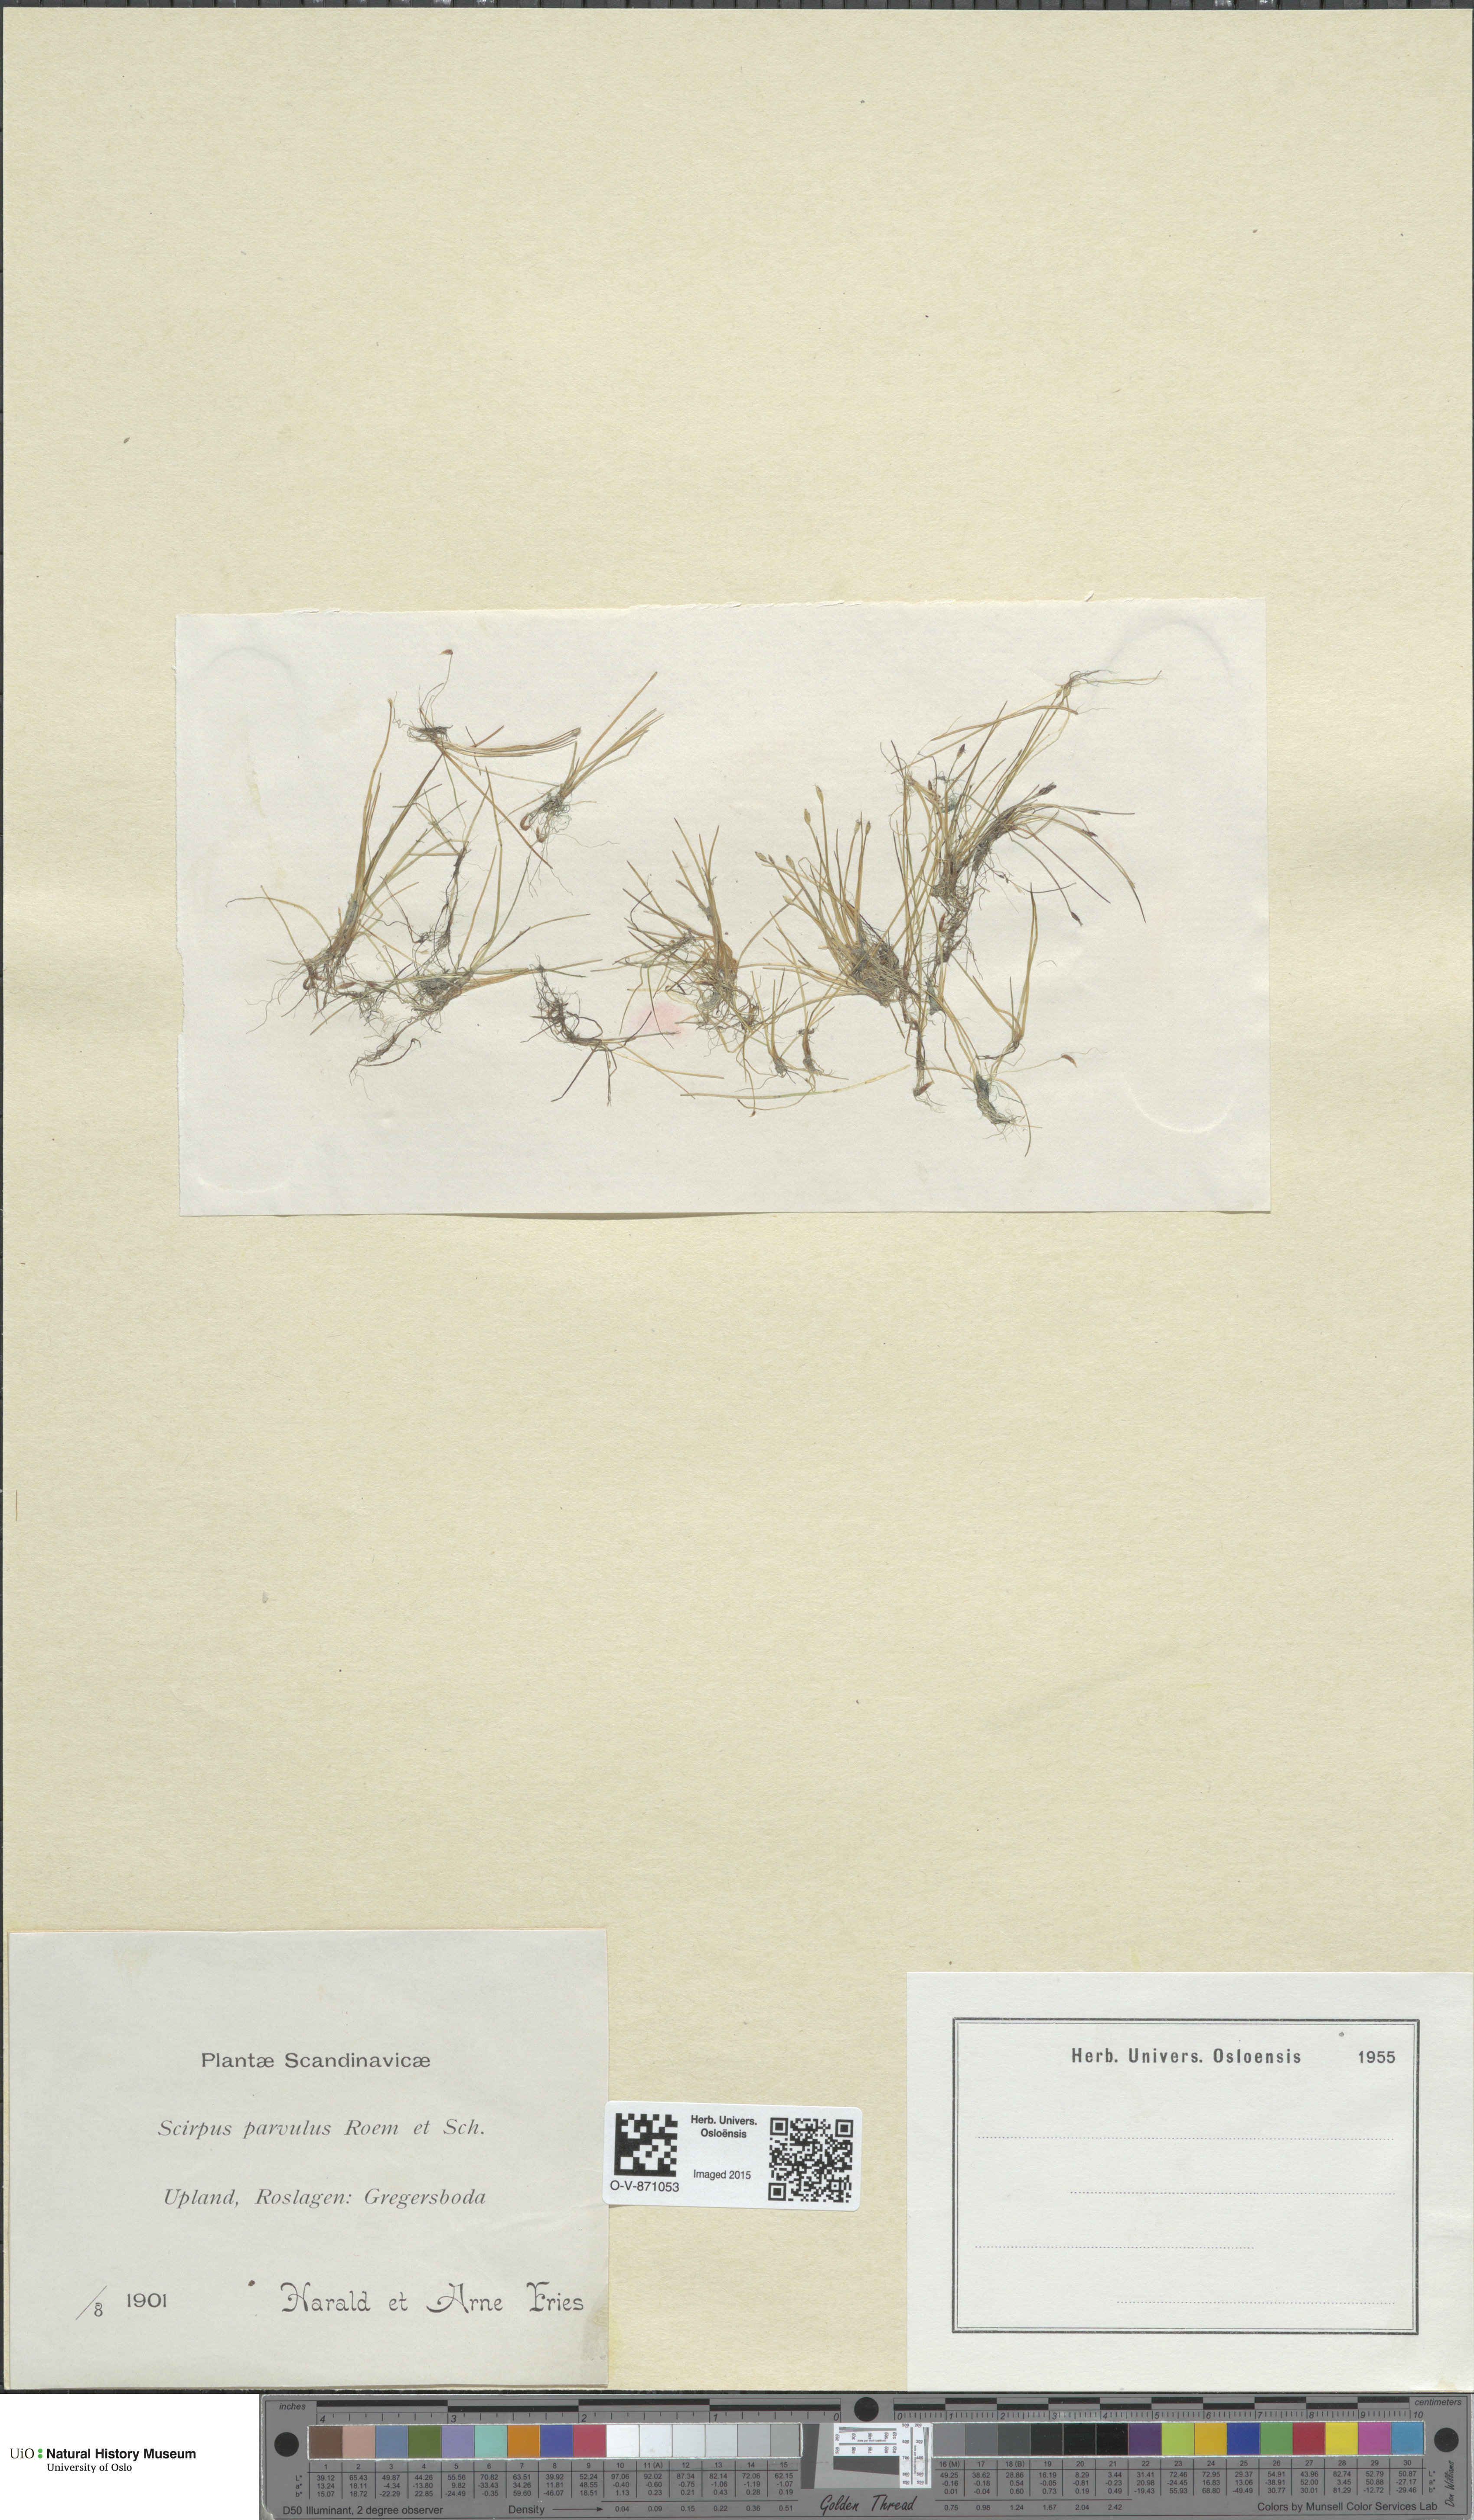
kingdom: Plantae
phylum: Tracheophyta
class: Liliopsida
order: Poales
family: Cyperaceae
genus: Eleocharis
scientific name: Eleocharis parvula
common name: Dwarf spike-rush
